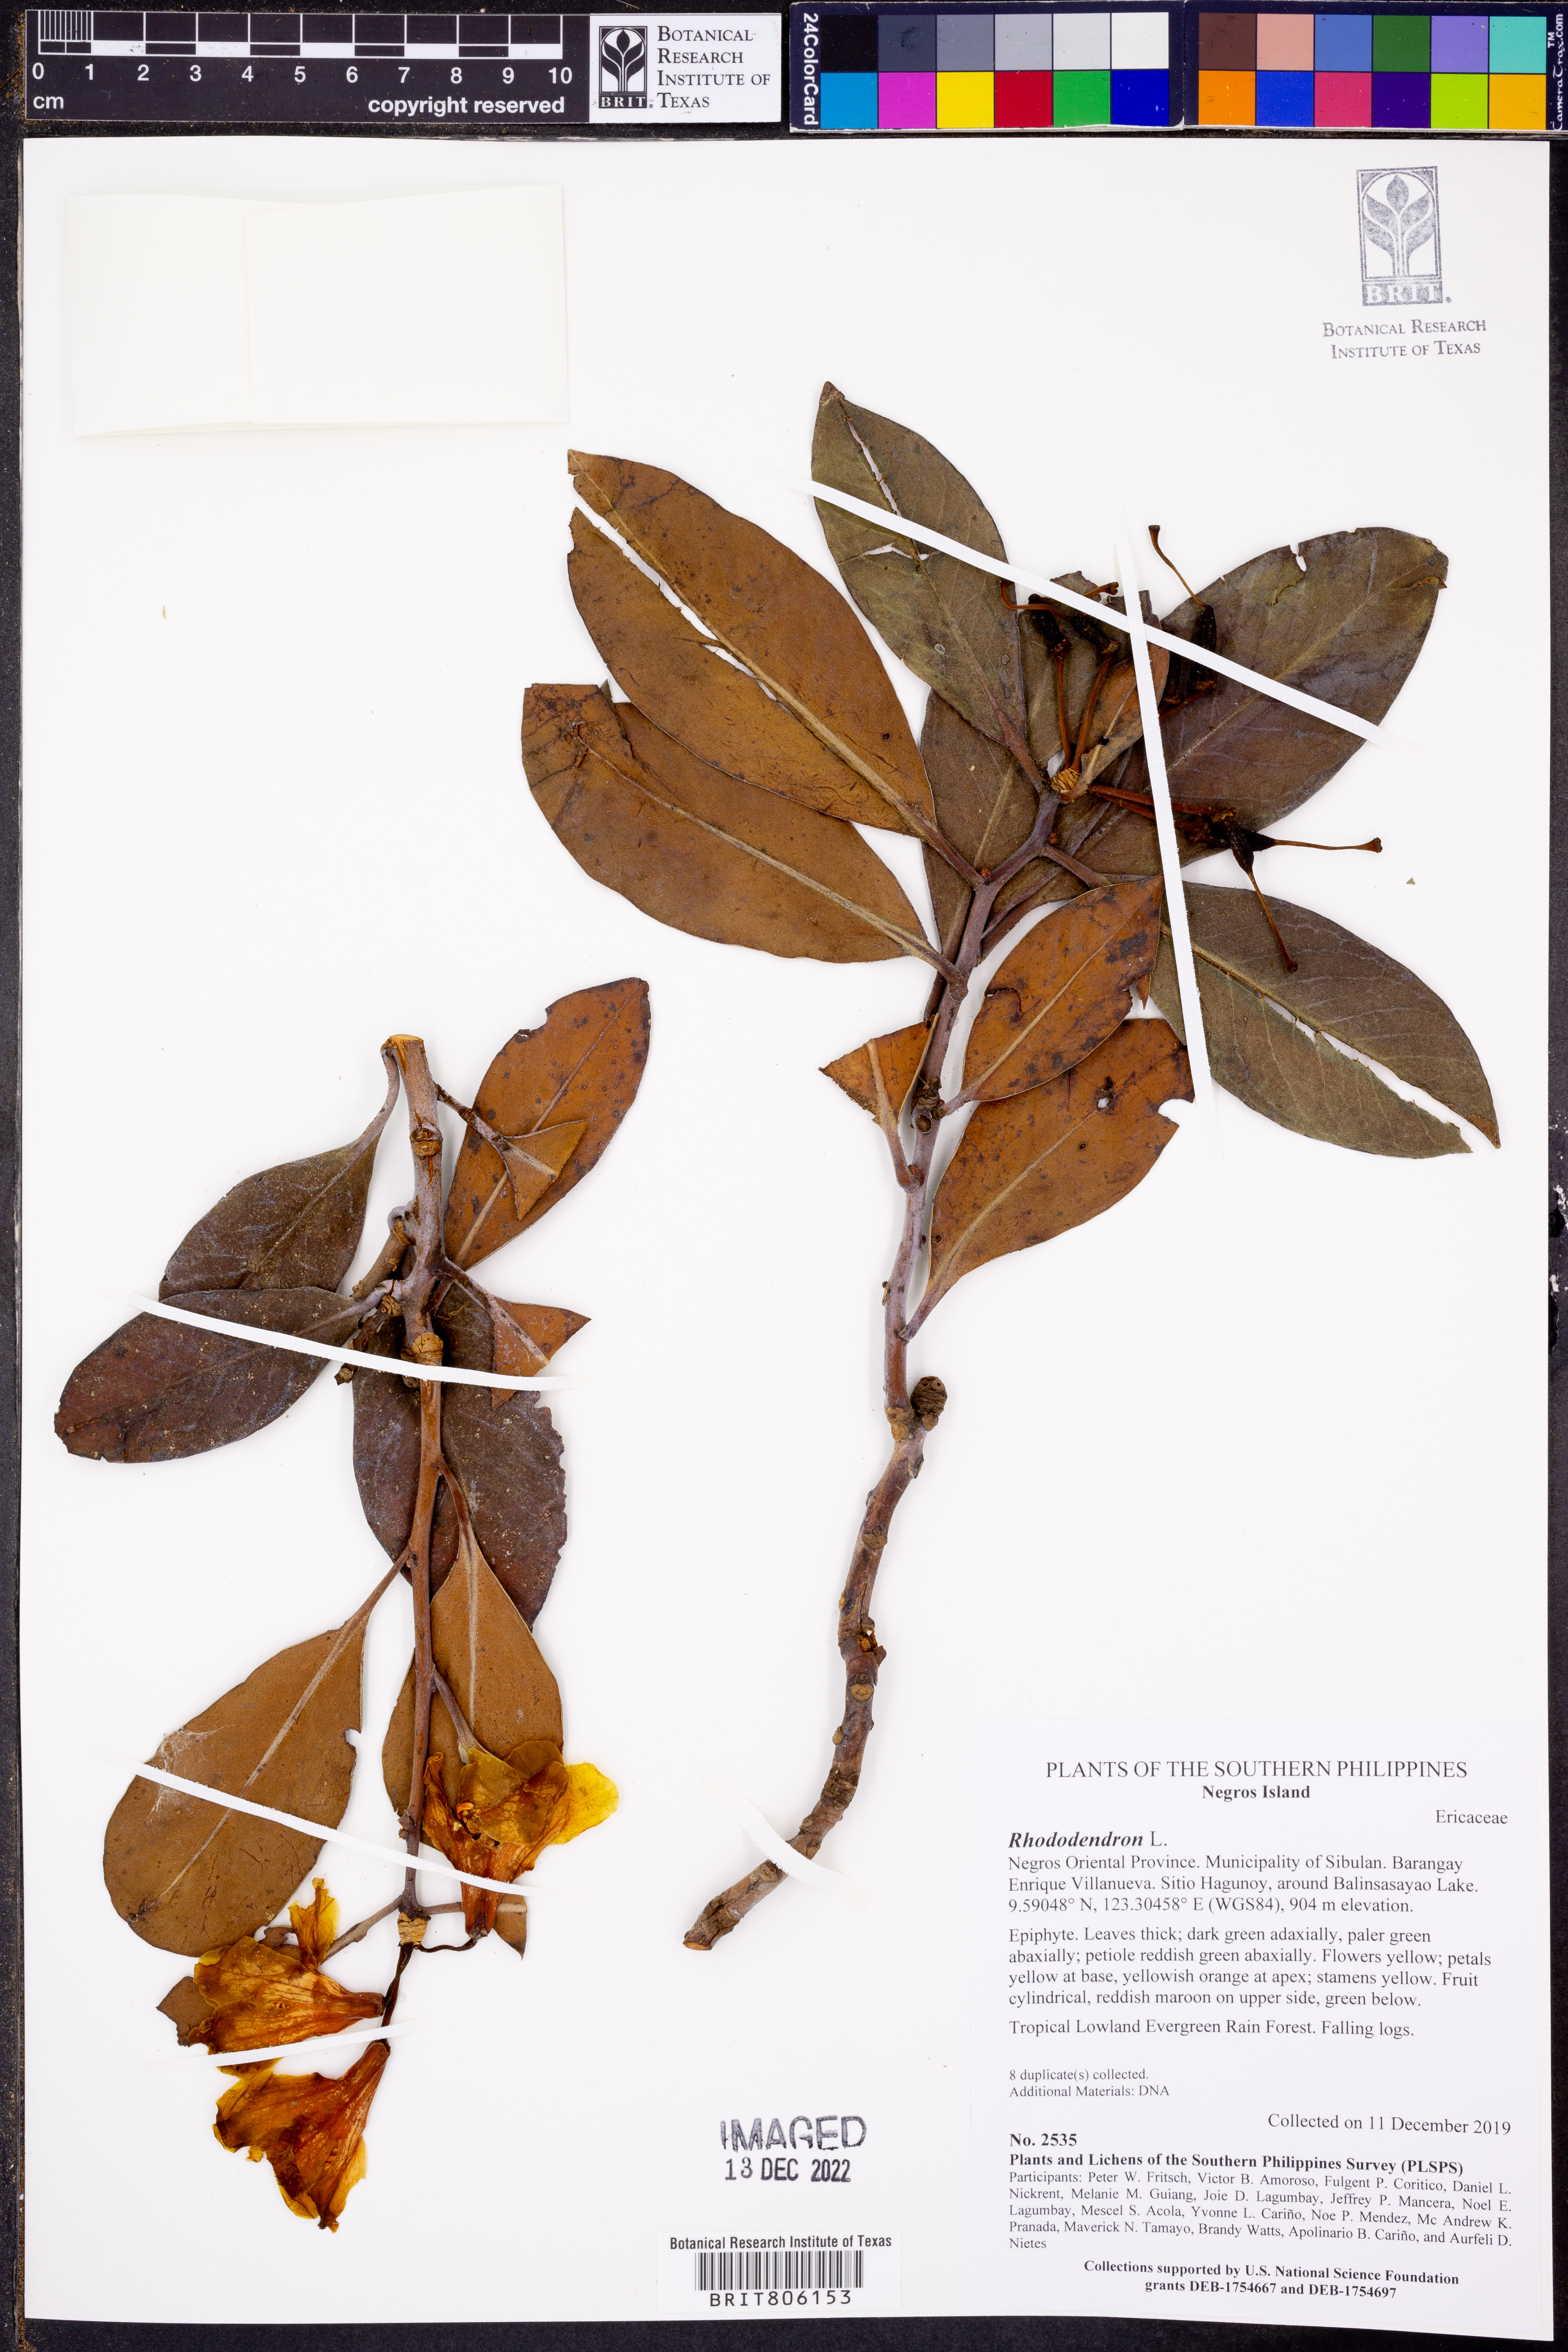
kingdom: Plantae
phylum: Tracheophyta
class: Magnoliopsida
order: Ericales
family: Ericaceae
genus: Rhododendron
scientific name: Rhododendron loboense
